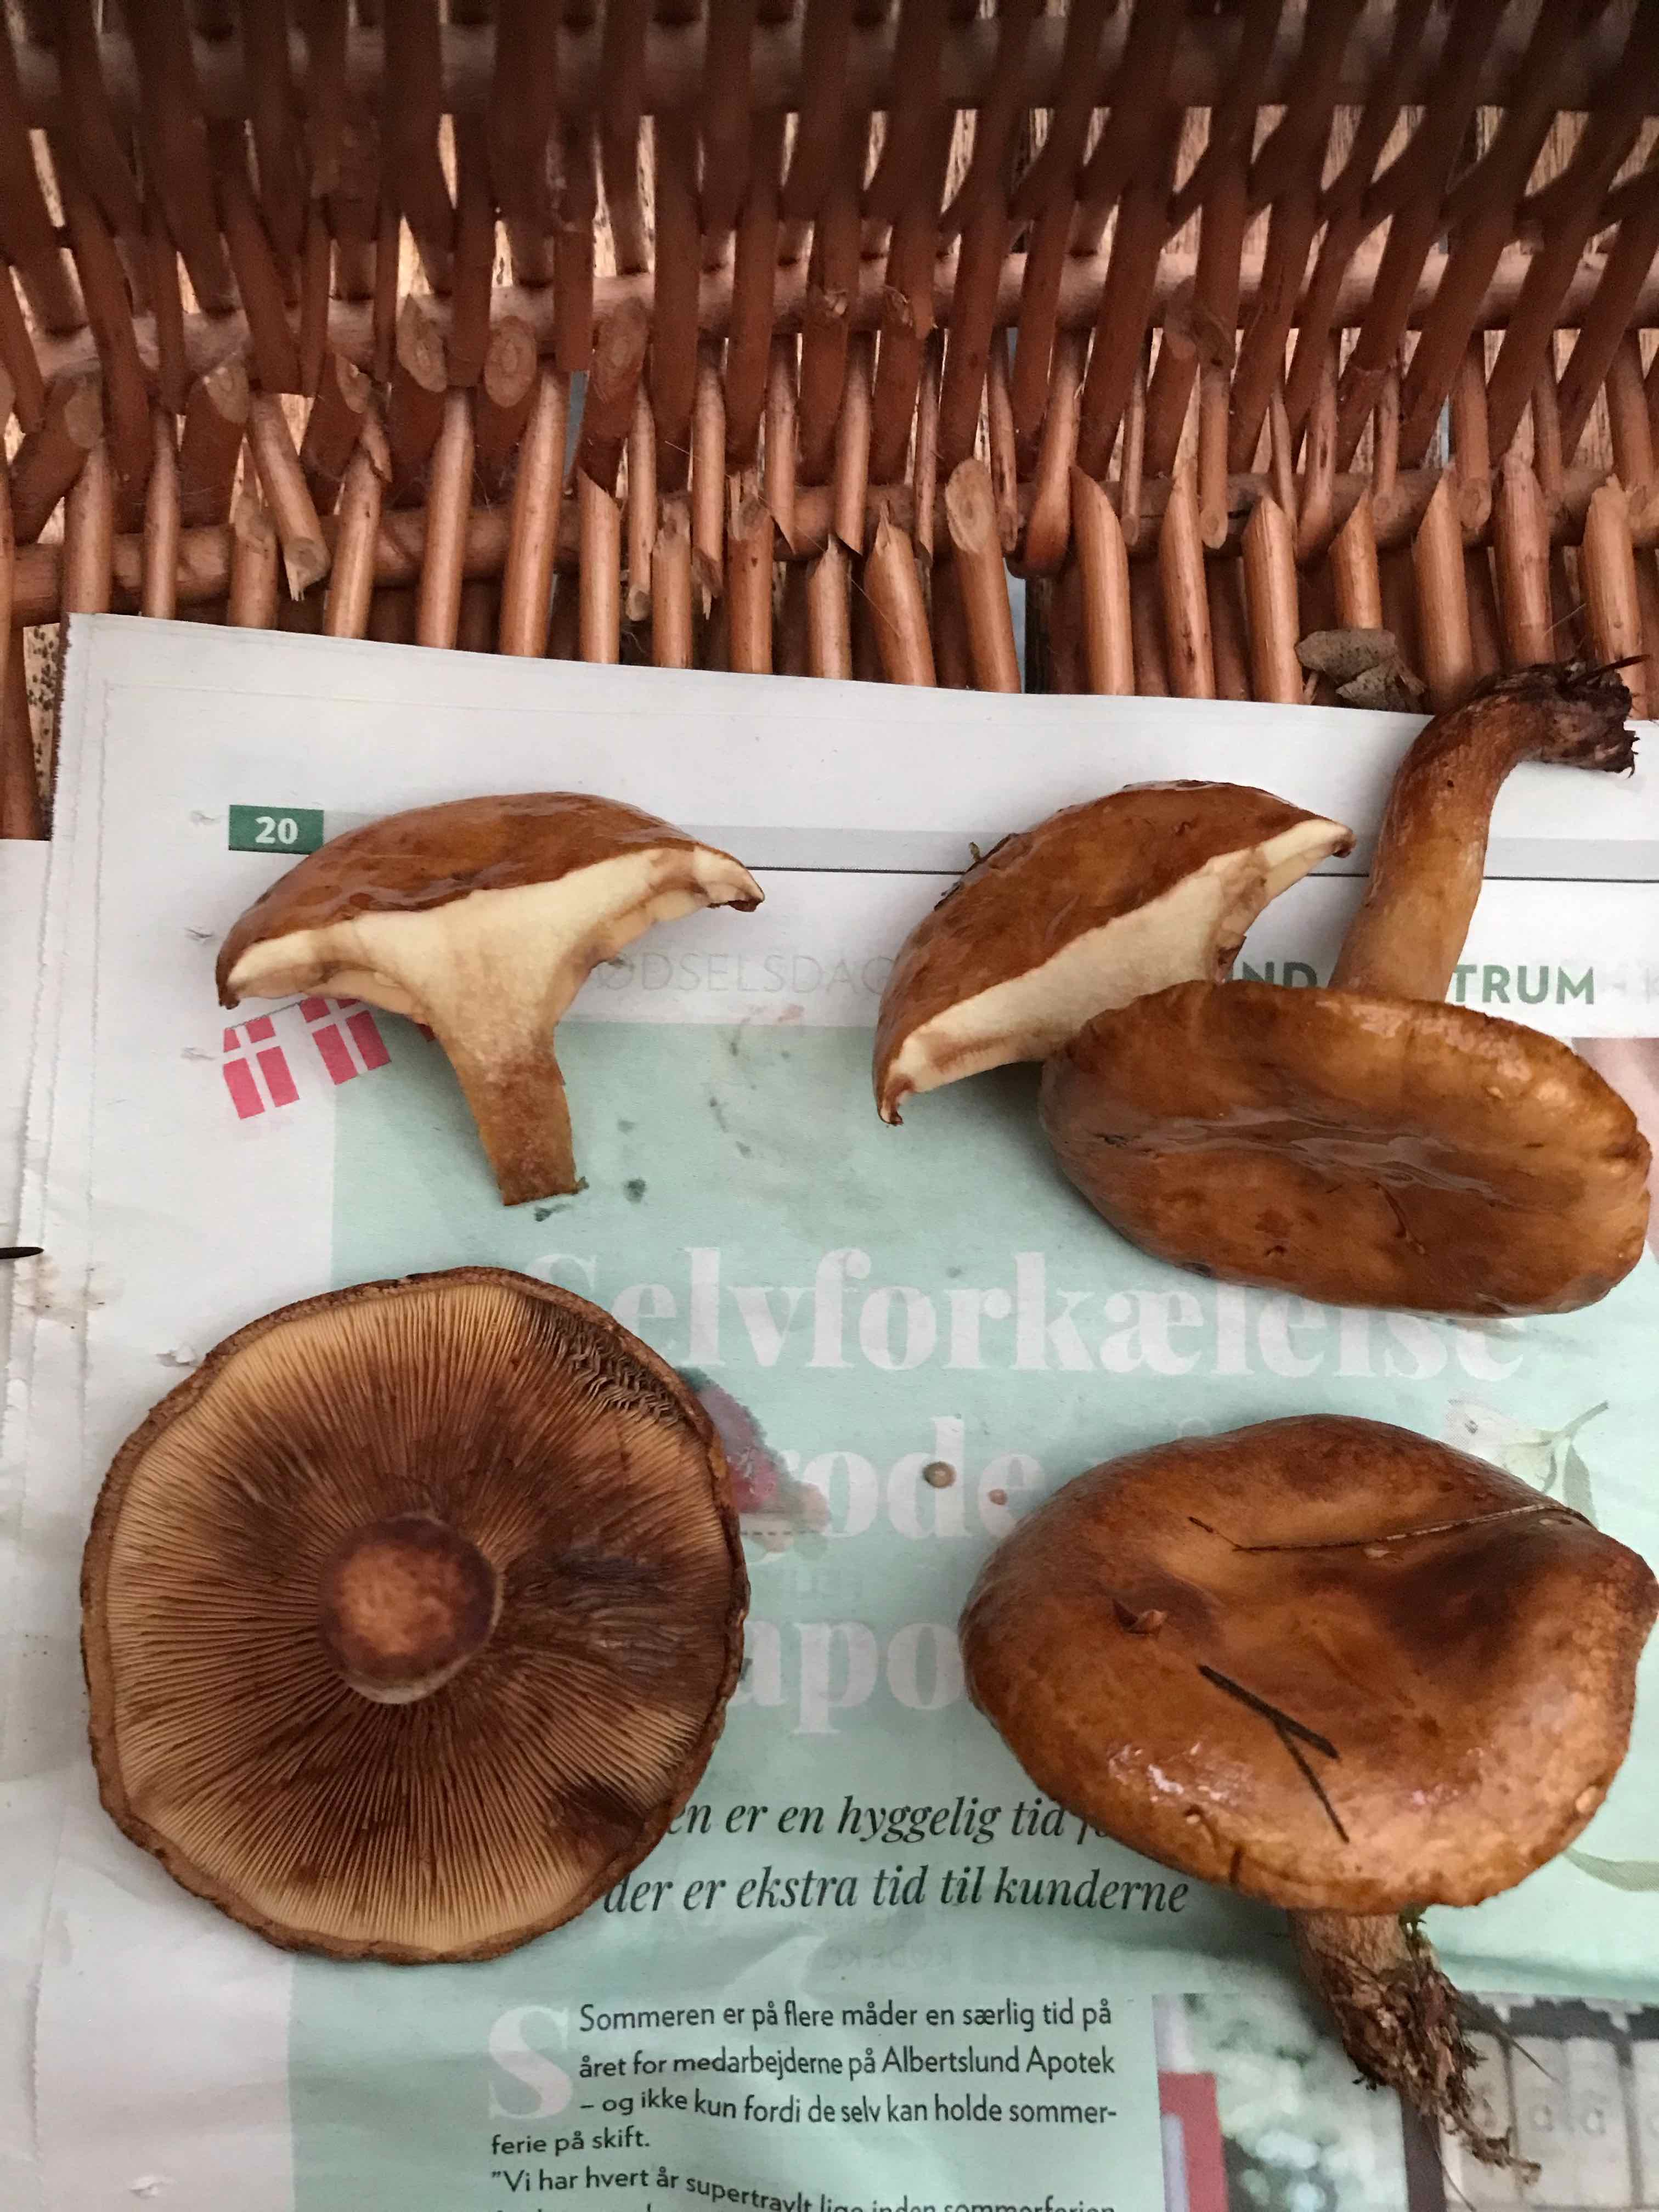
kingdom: Fungi
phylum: Basidiomycota
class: Agaricomycetes
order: Boletales
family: Paxillaceae
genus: Paxillus
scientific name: Paxillus
